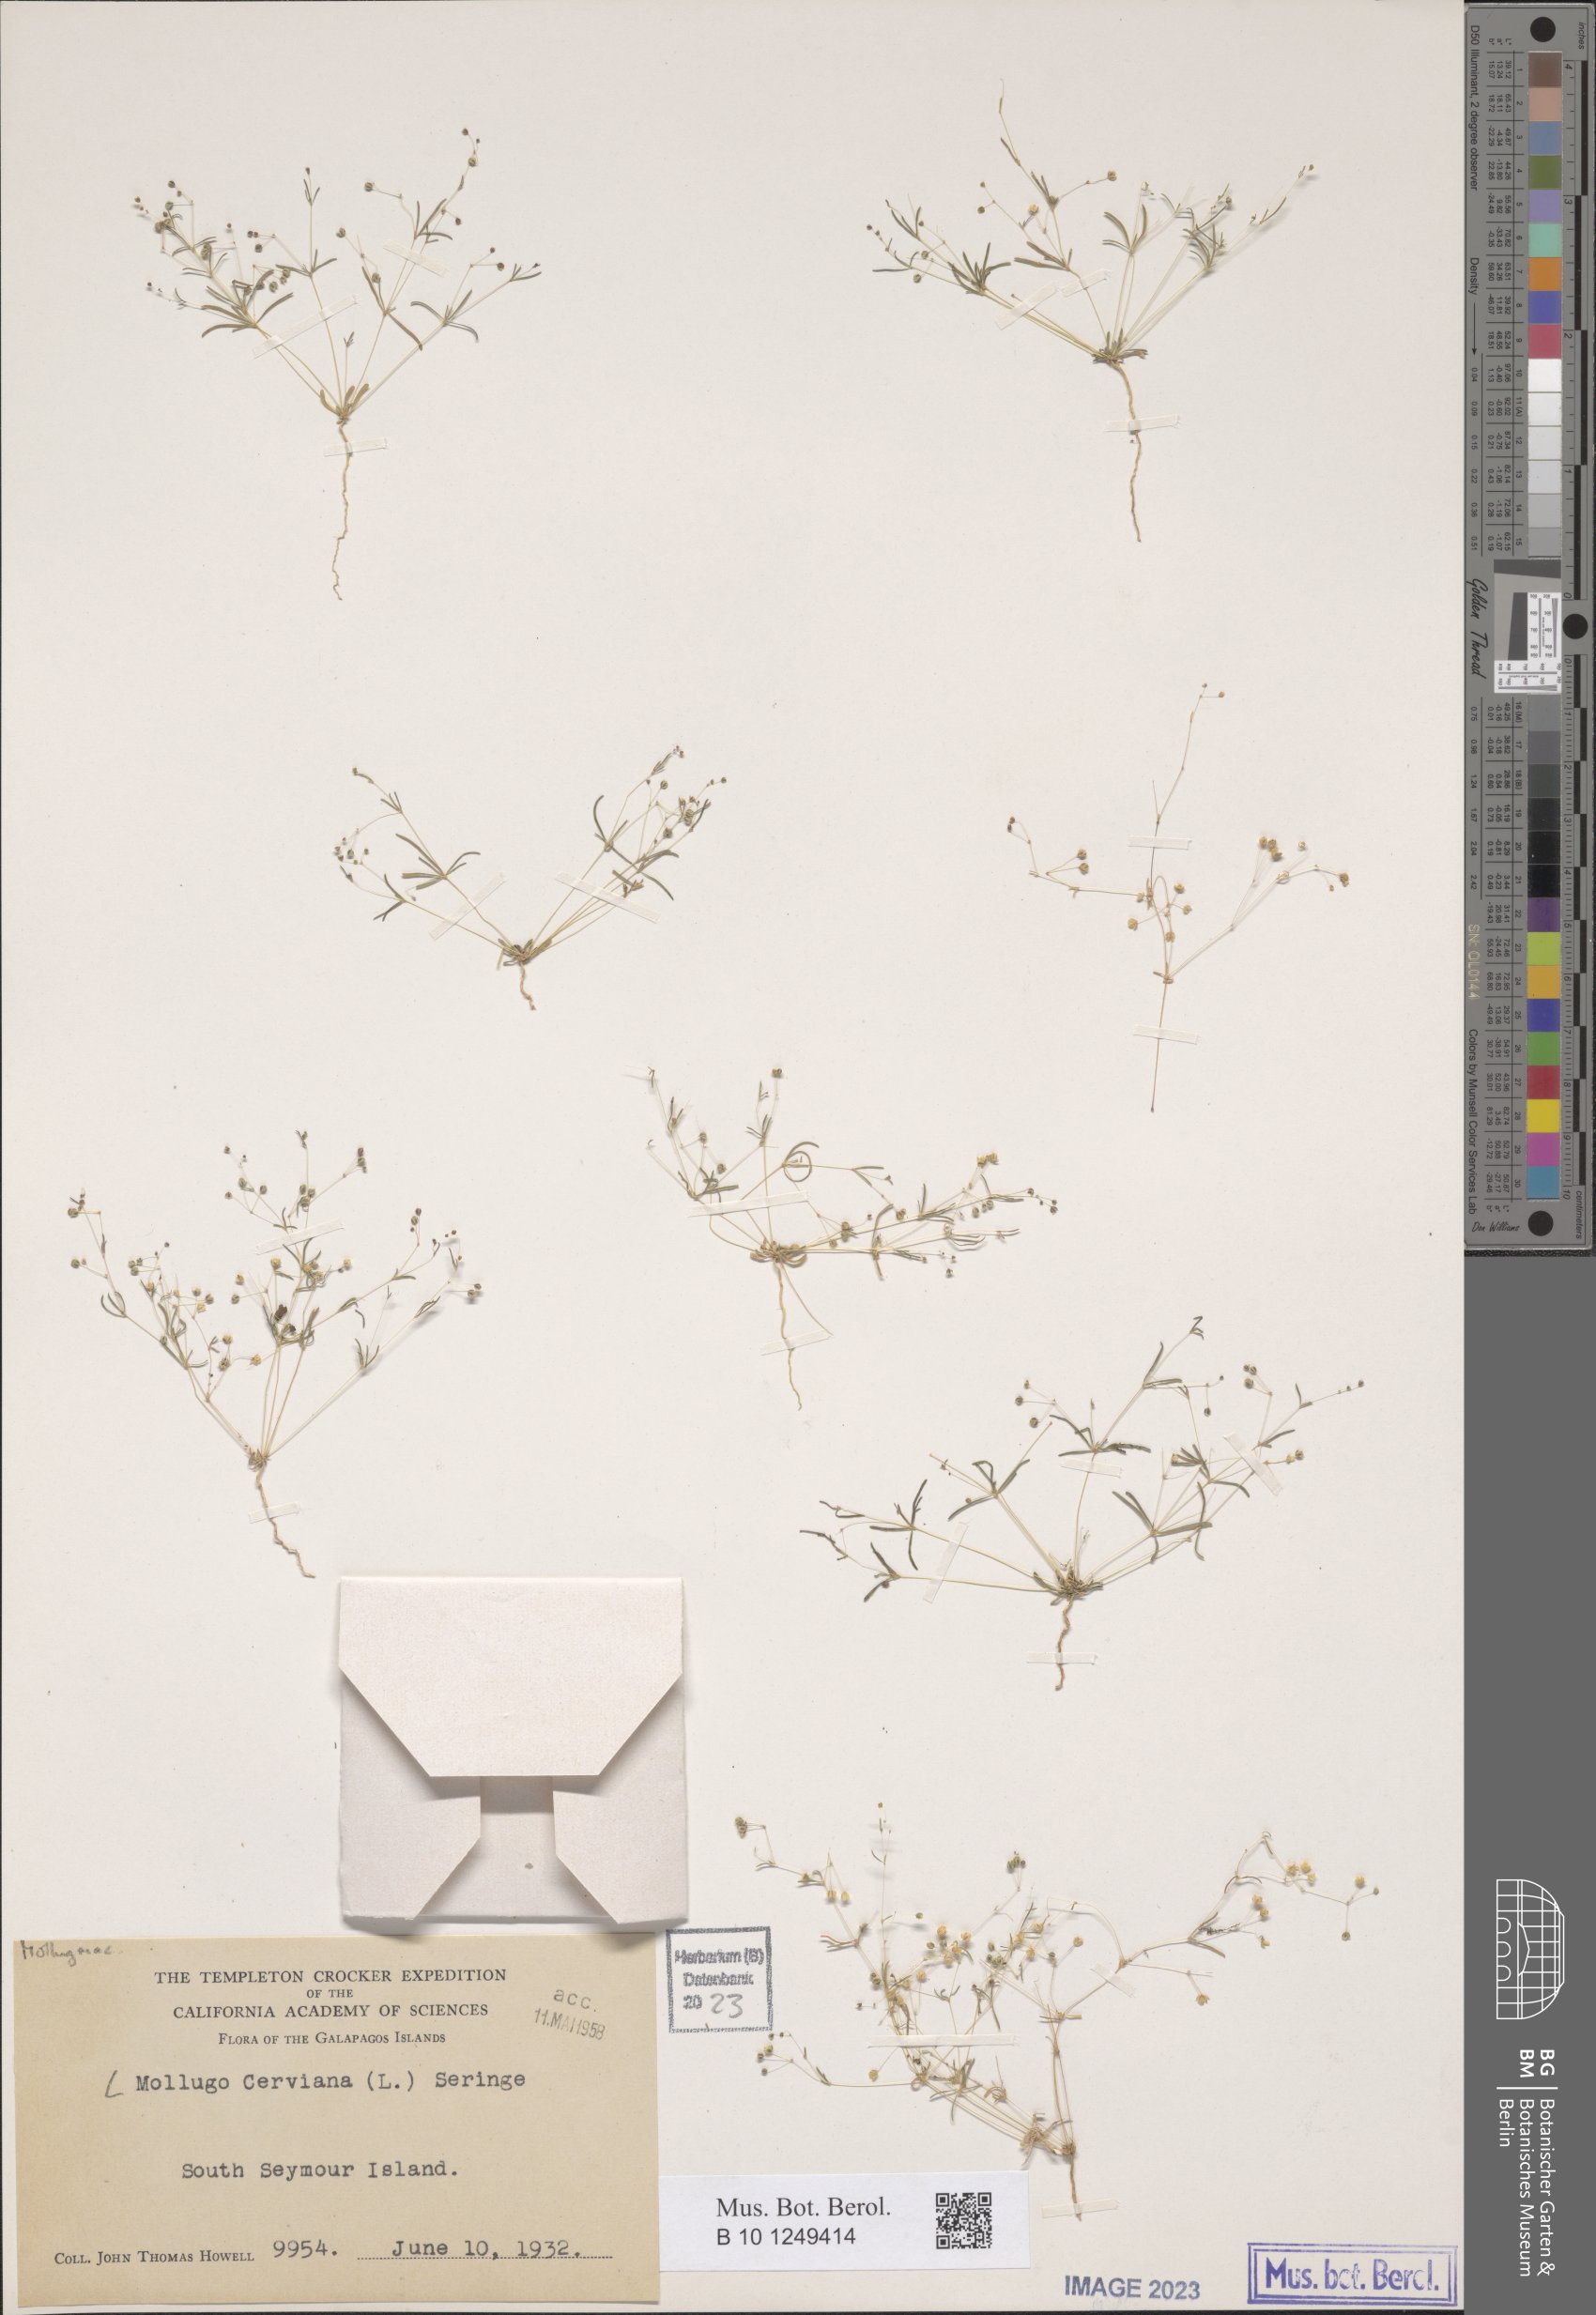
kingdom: Plantae
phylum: Tracheophyta
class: Magnoliopsida
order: Caryophyllales
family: Molluginaceae
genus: Hypertelis
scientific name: Hypertelis cerviana
